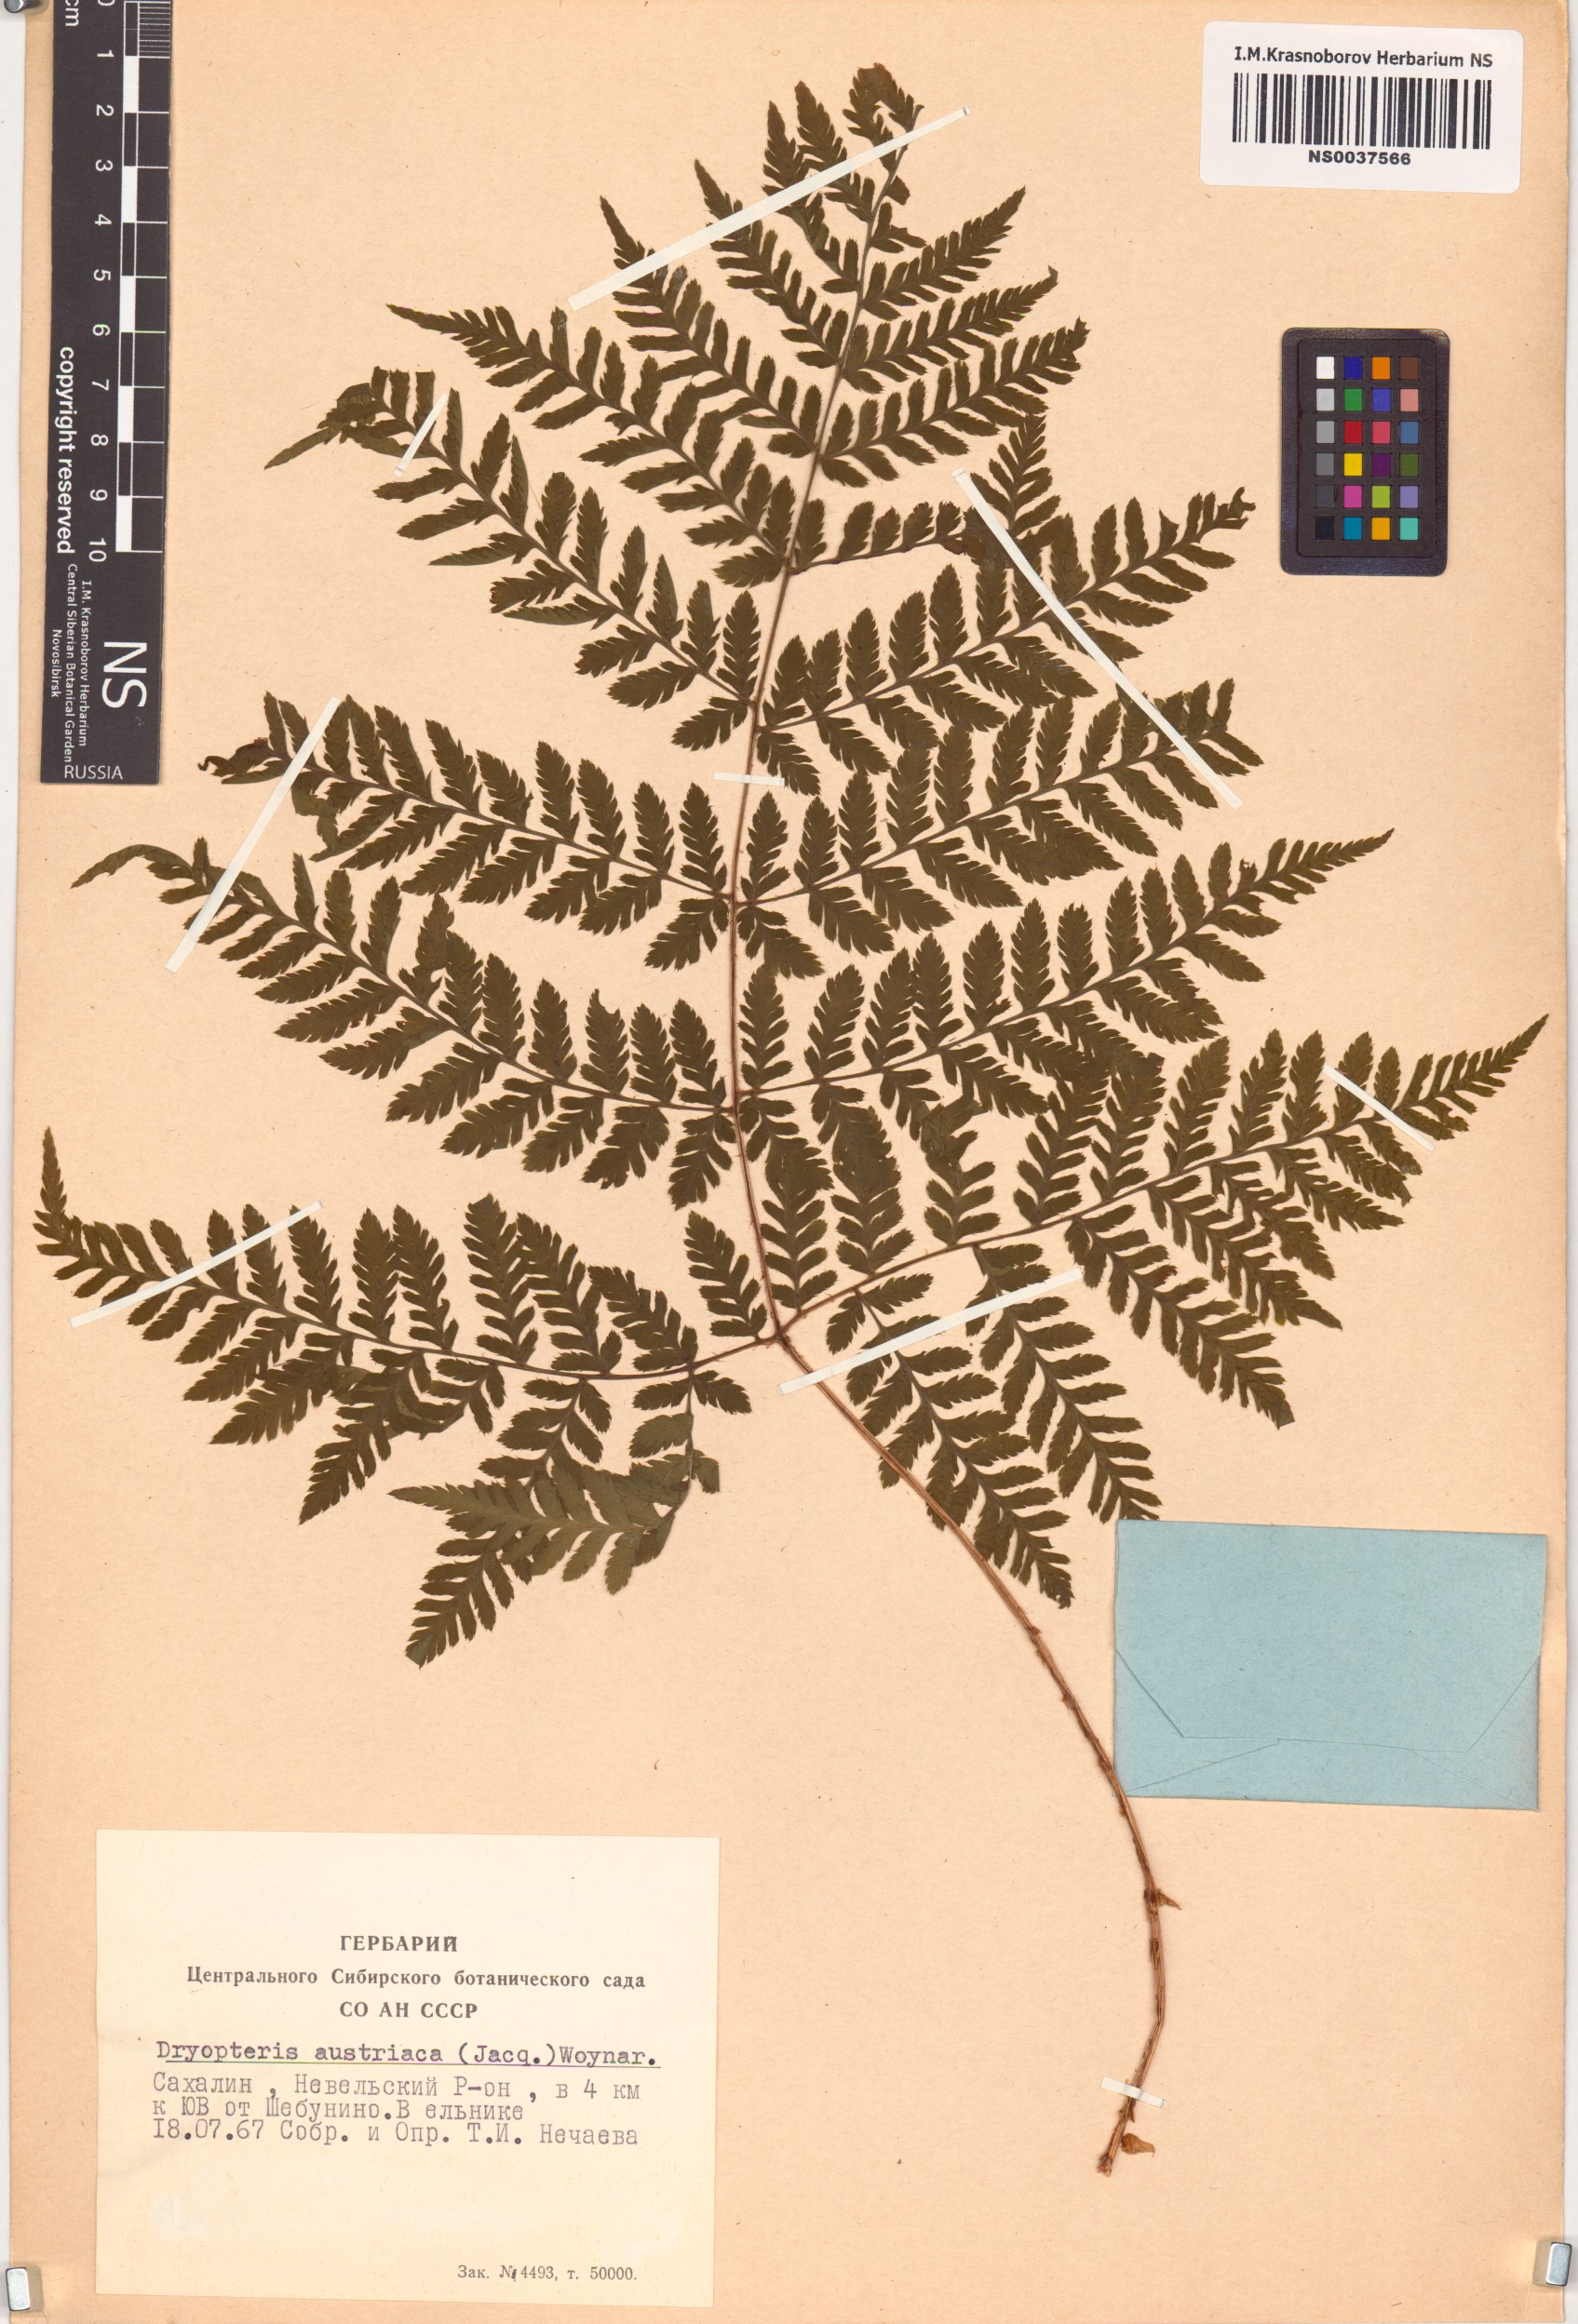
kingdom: Plantae
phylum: Tracheophyta
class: Polypodiopsida
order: Polypodiales
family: Dryopteridaceae
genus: Dryopteris
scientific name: Dryopteris dilatata
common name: Broad buckler-fern
